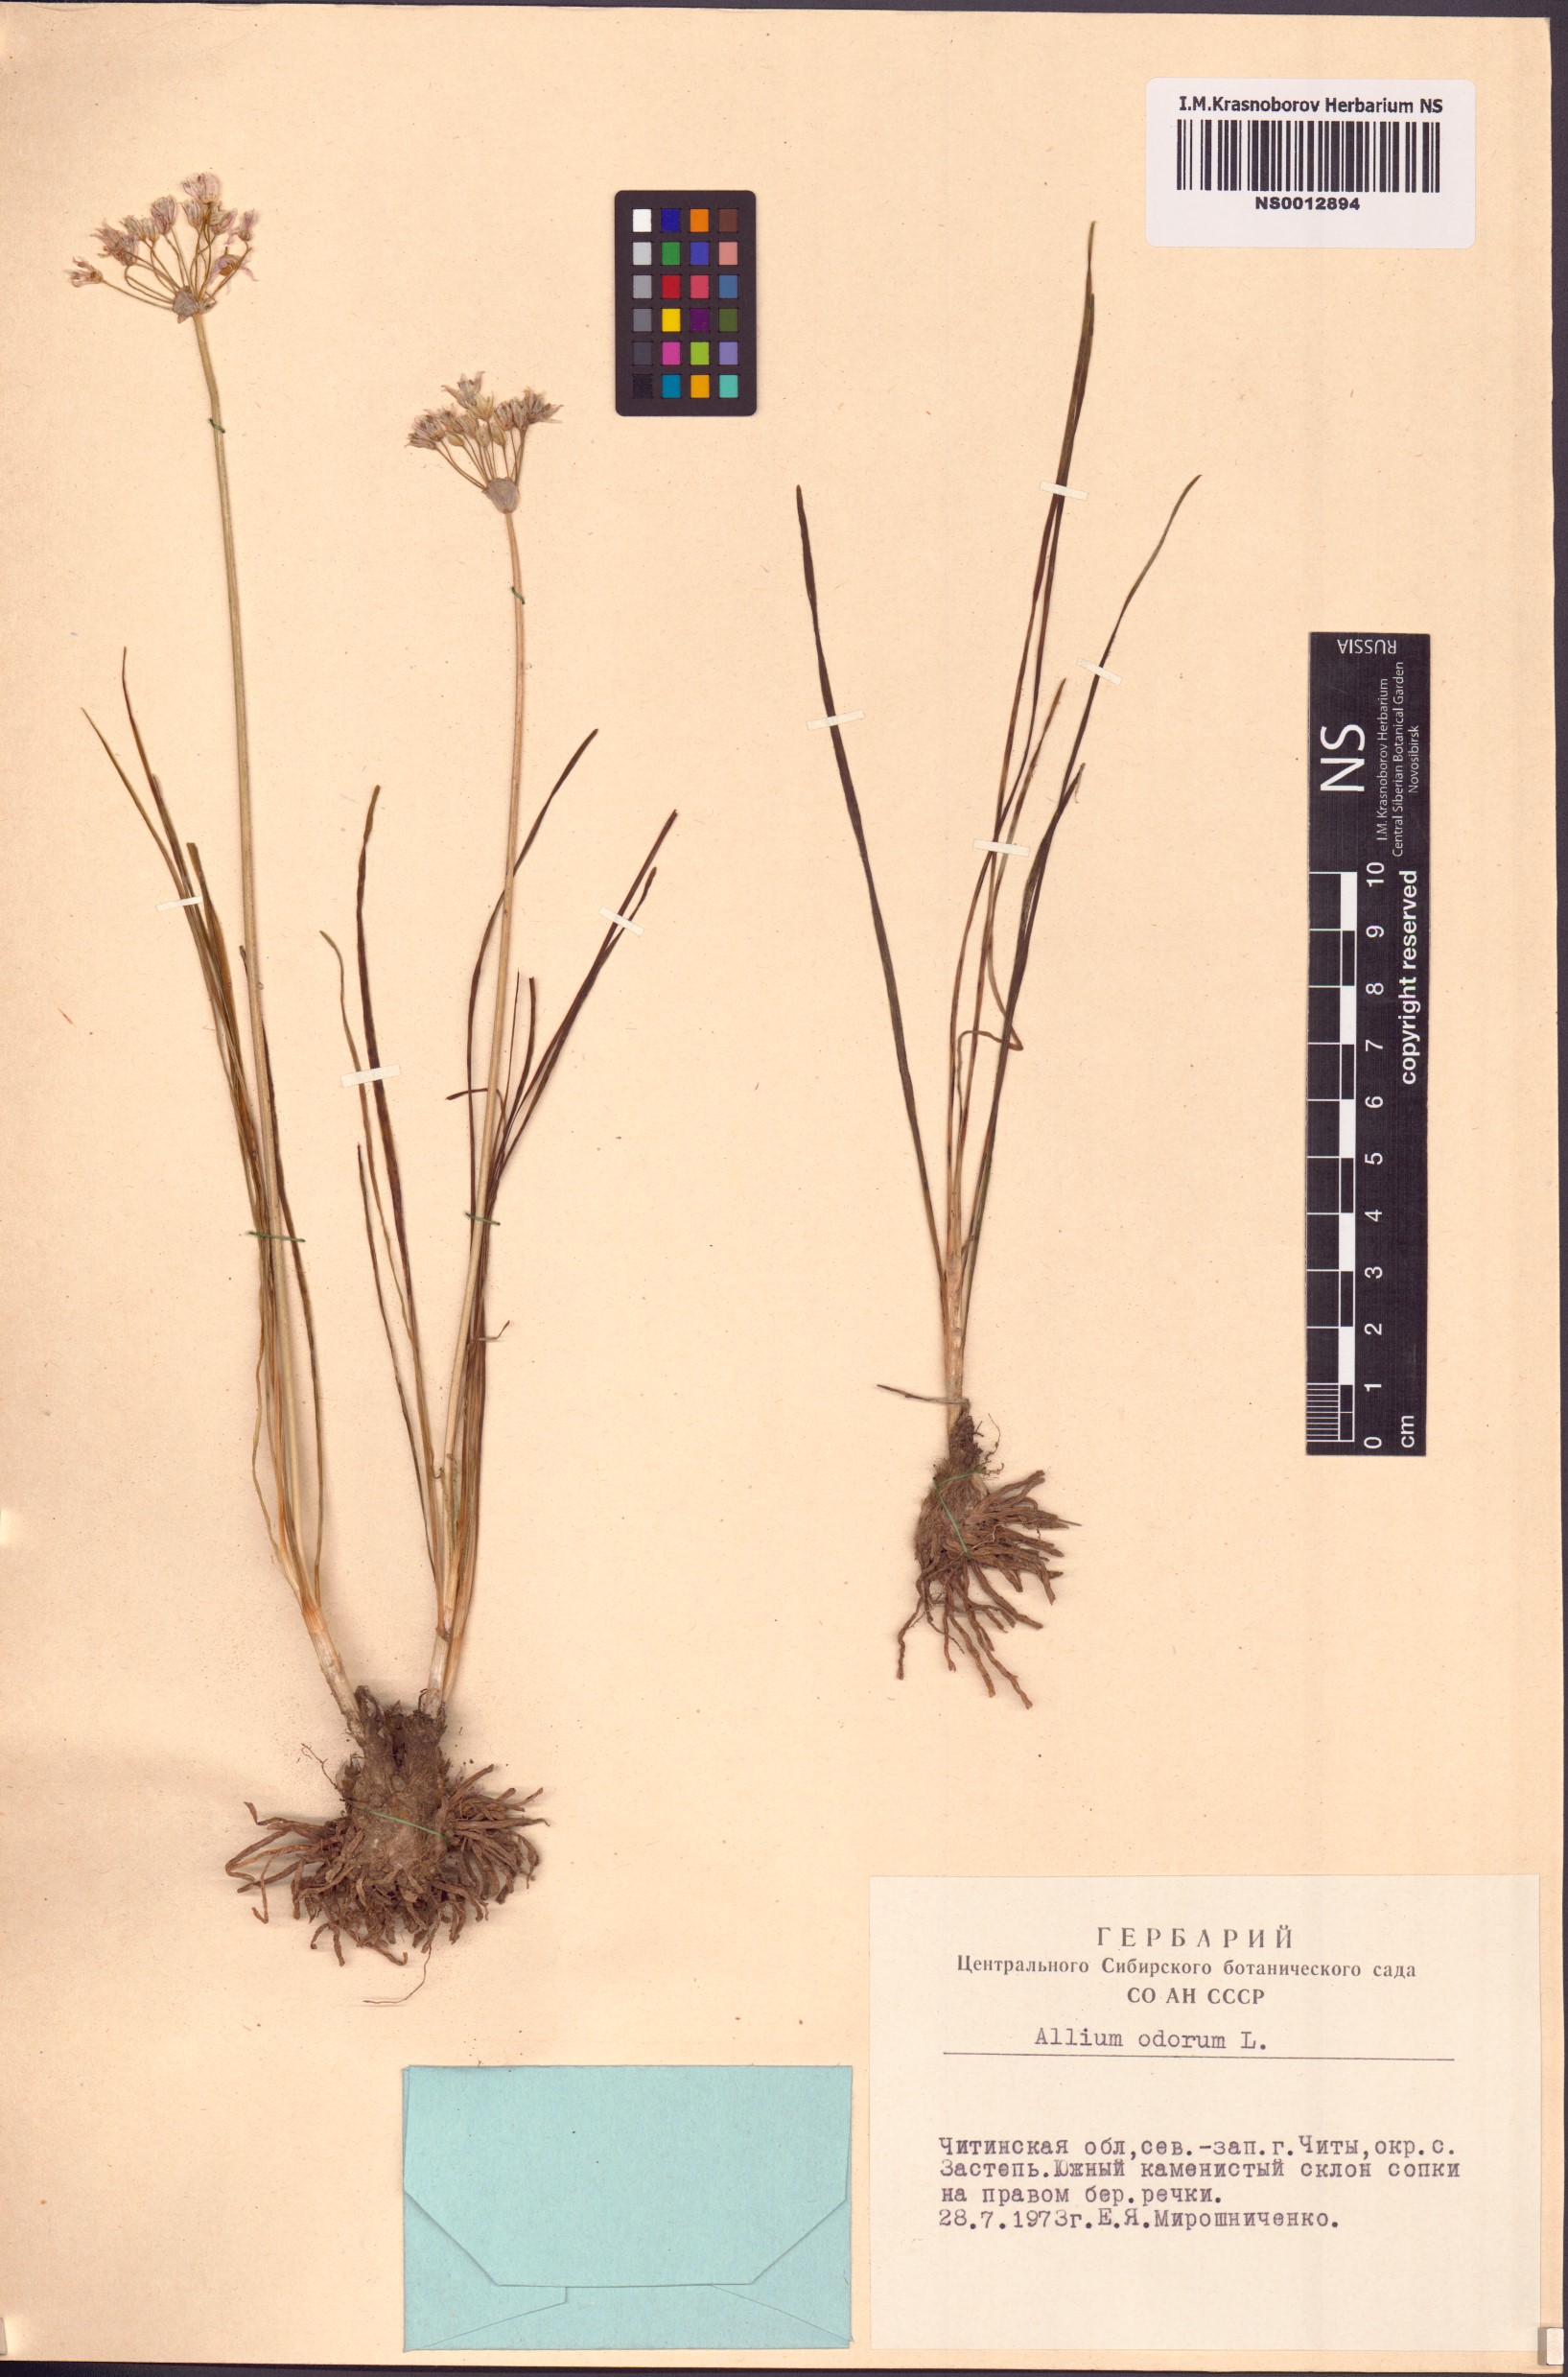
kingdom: Plantae
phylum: Tracheophyta
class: Liliopsida
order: Asparagales
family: Amaryllidaceae
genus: Allium
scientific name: Allium ramosum
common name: Fragrant garlic
